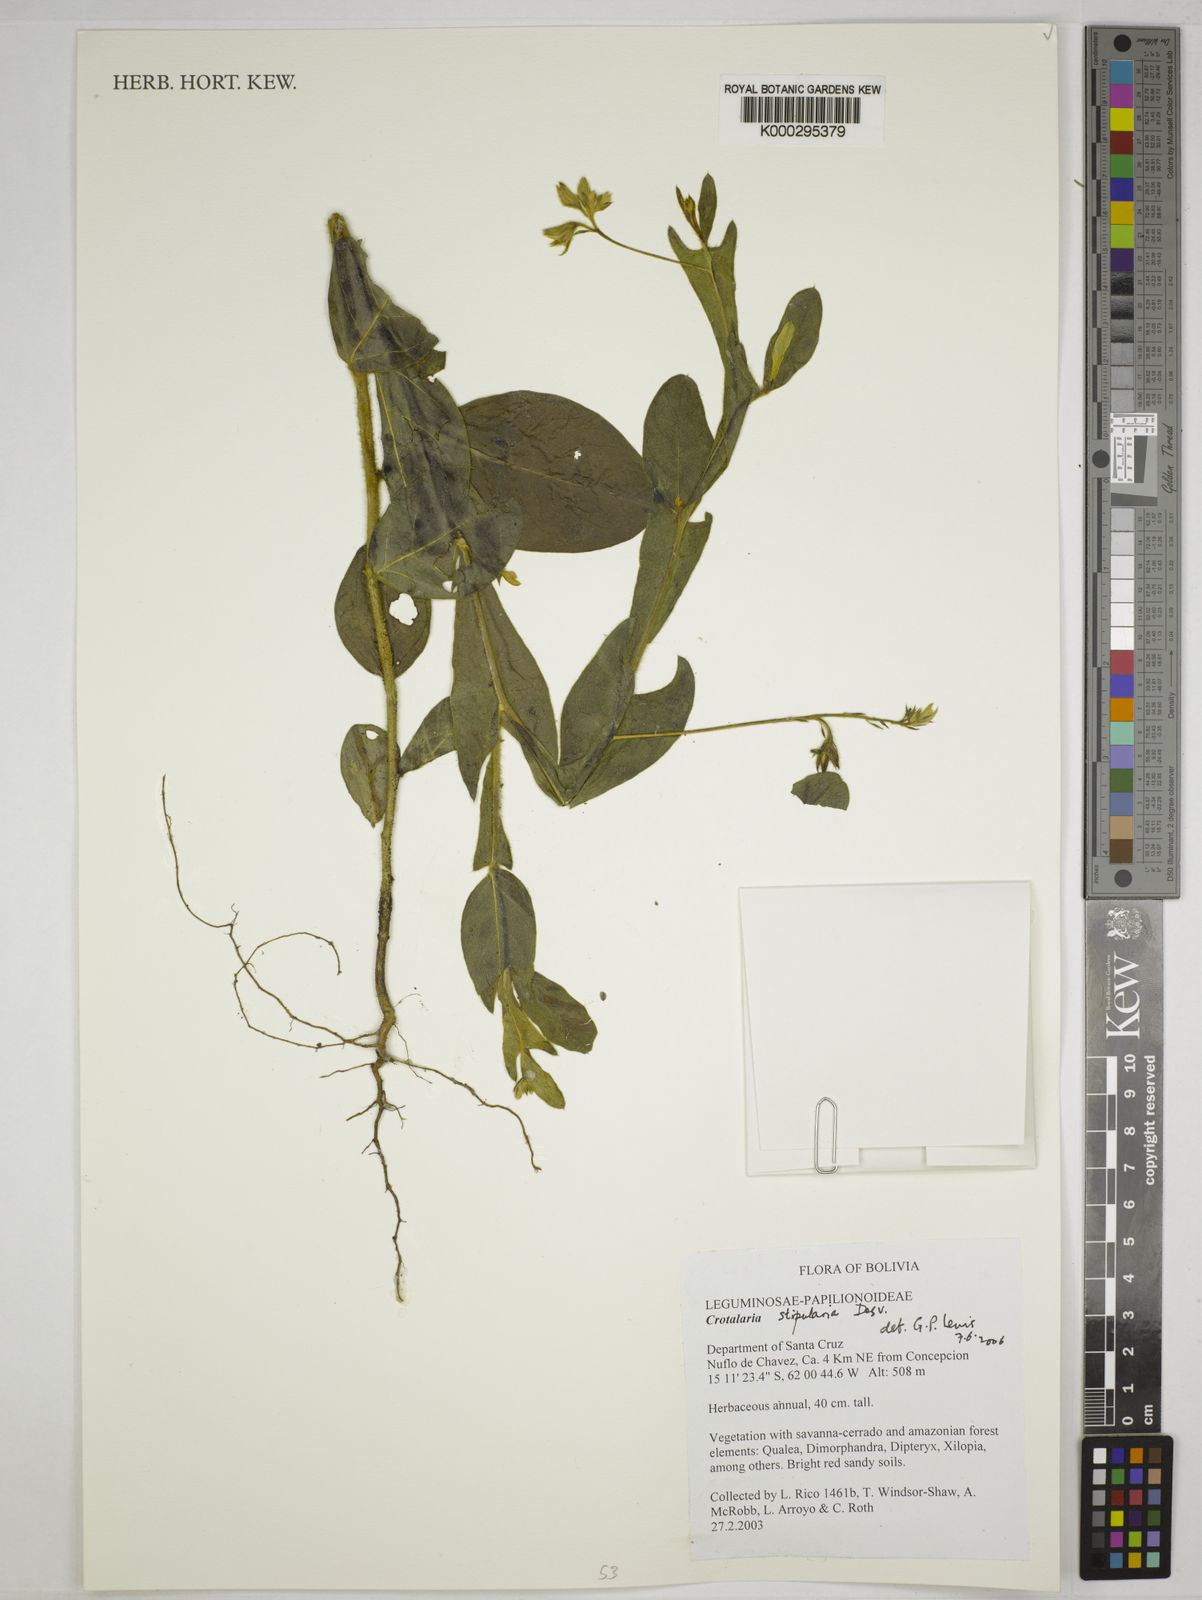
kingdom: Plantae
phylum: Tracheophyta
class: Magnoliopsida
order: Fabales
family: Fabaceae
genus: Crotalaria
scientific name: Crotalaria stipularia
